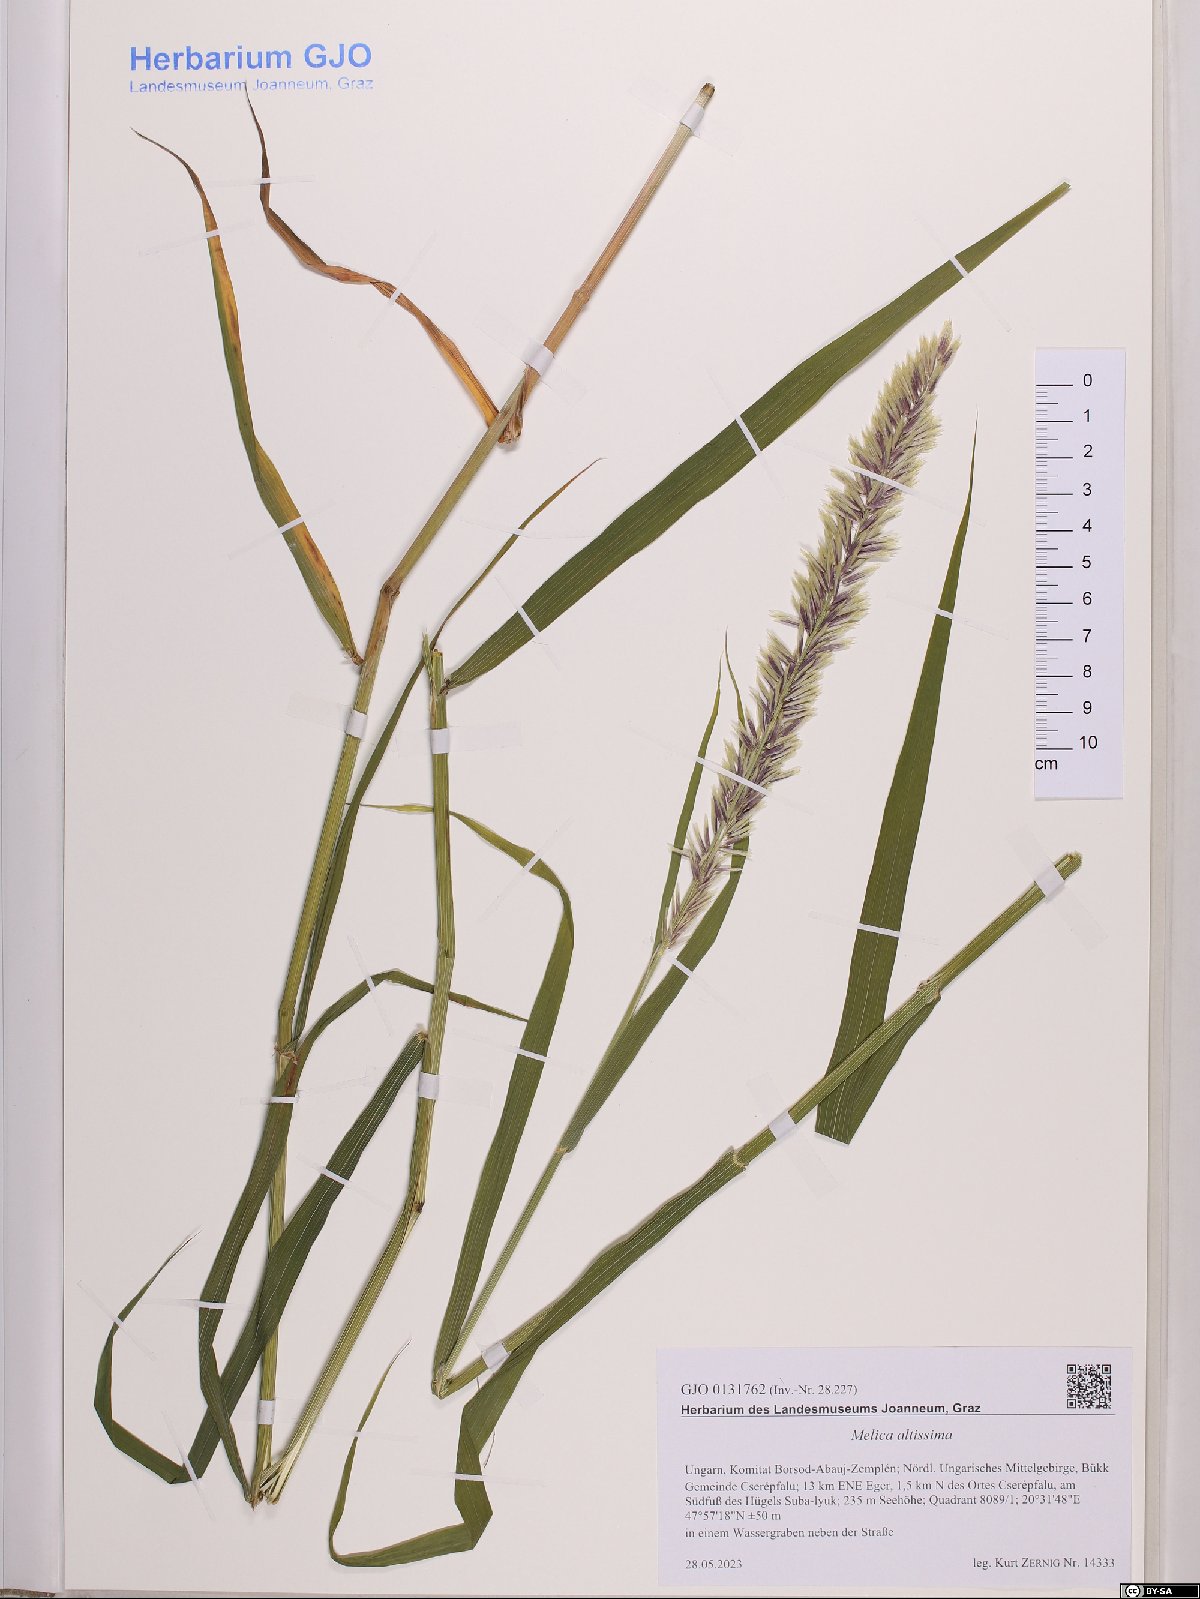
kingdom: Plantae
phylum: Tracheophyta
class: Liliopsida
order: Poales
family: Poaceae
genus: Melica
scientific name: Melica altissima
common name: Siberian melicgrass
